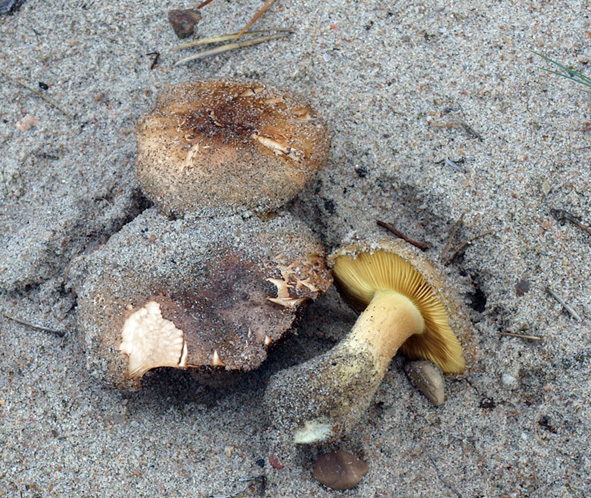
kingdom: Fungi
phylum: Basidiomycota
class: Agaricomycetes
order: Agaricales
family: Tricholomataceae
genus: Tricholoma
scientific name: Tricholoma equestre
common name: ægte ridderhat
